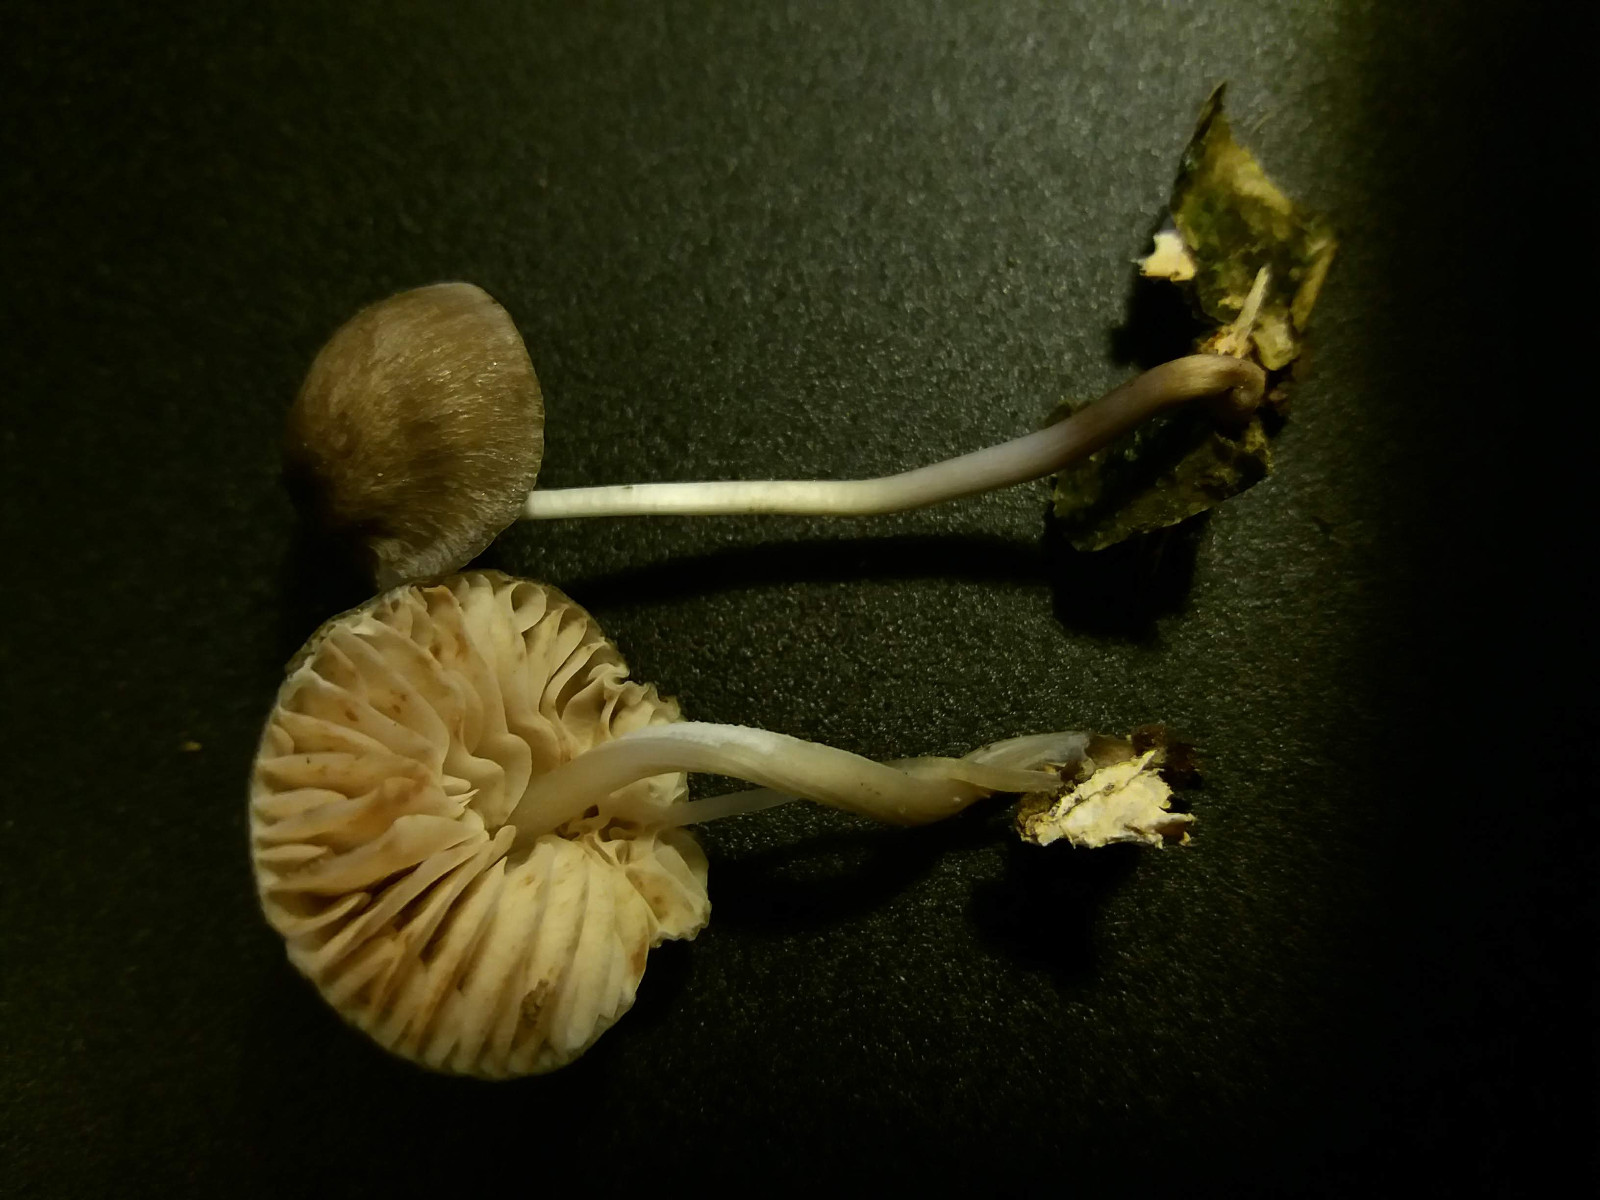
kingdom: Fungi
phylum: Basidiomycota
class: Agaricomycetes
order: Agaricales
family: Mycenaceae
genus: Mycena
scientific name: Mycena polygramma
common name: mangestribet huesvamp
